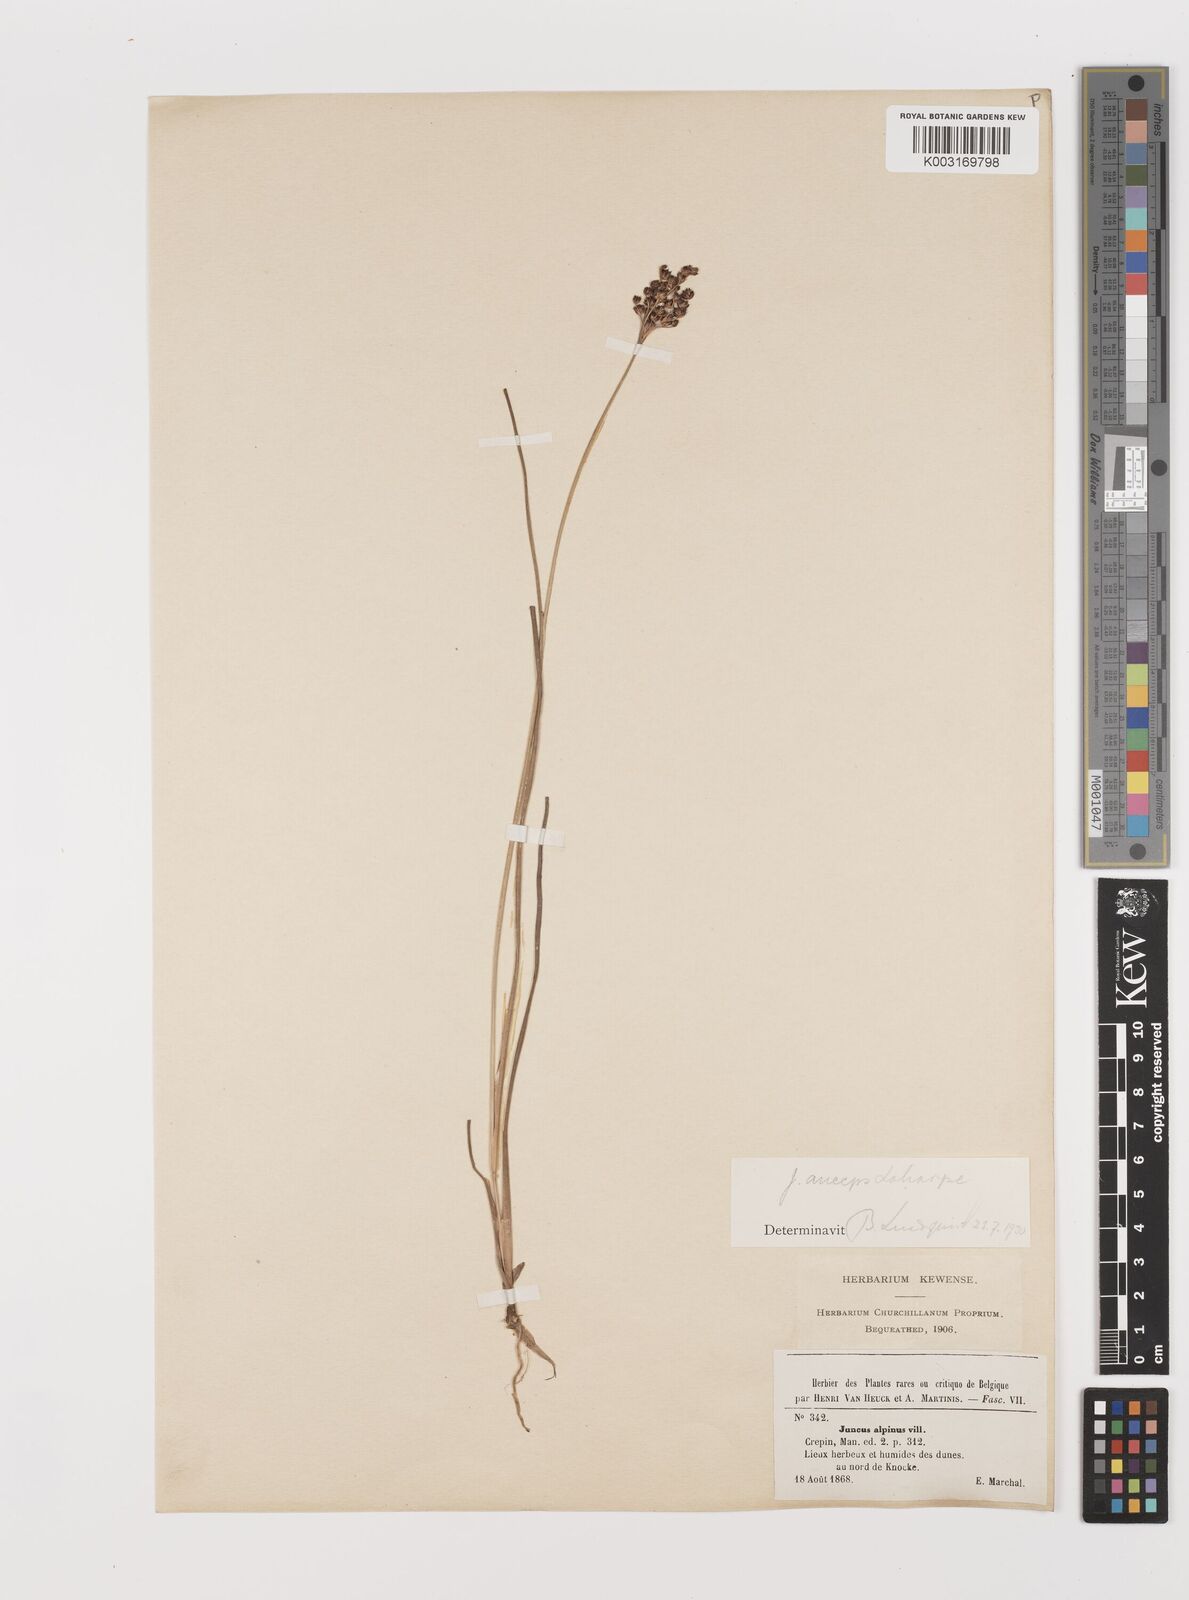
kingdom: Plantae
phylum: Tracheophyta
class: Liliopsida
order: Poales
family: Juncaceae
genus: Juncus
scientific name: Juncus anceps
